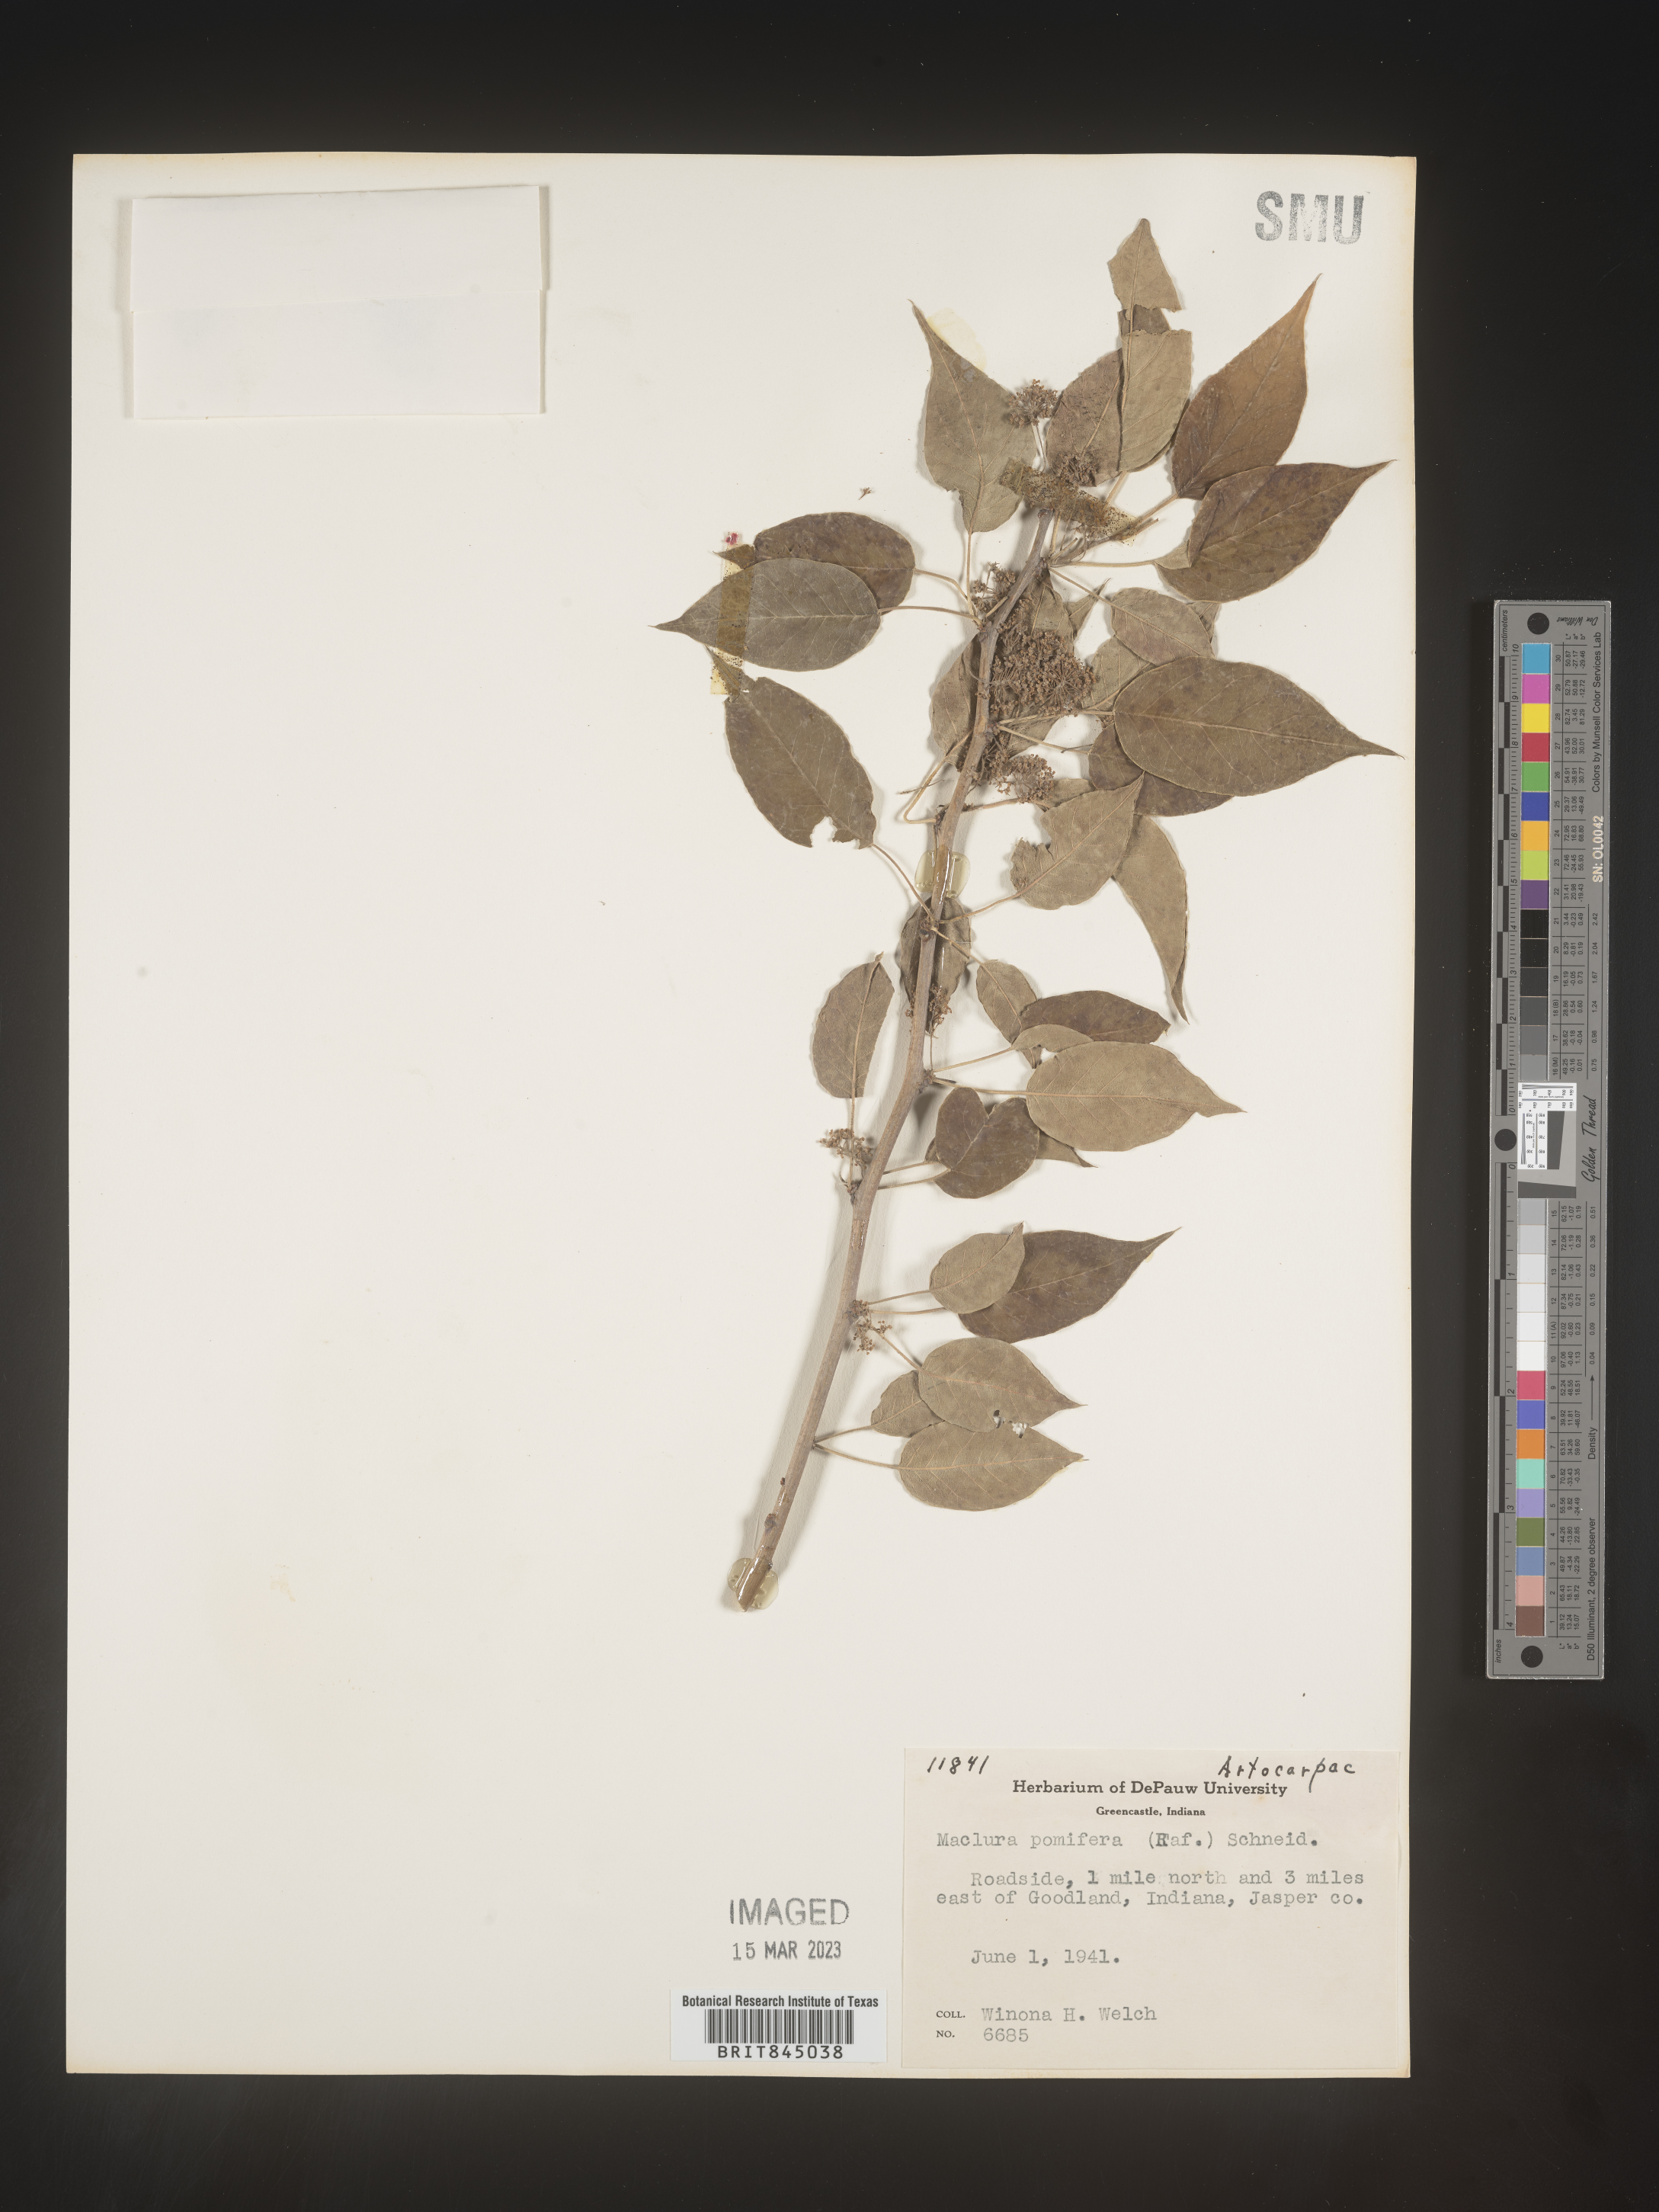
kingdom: Plantae
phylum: Tracheophyta
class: Magnoliopsida
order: Rosales
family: Moraceae
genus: Maclura
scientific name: Maclura pomifera
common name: Osage-orange
